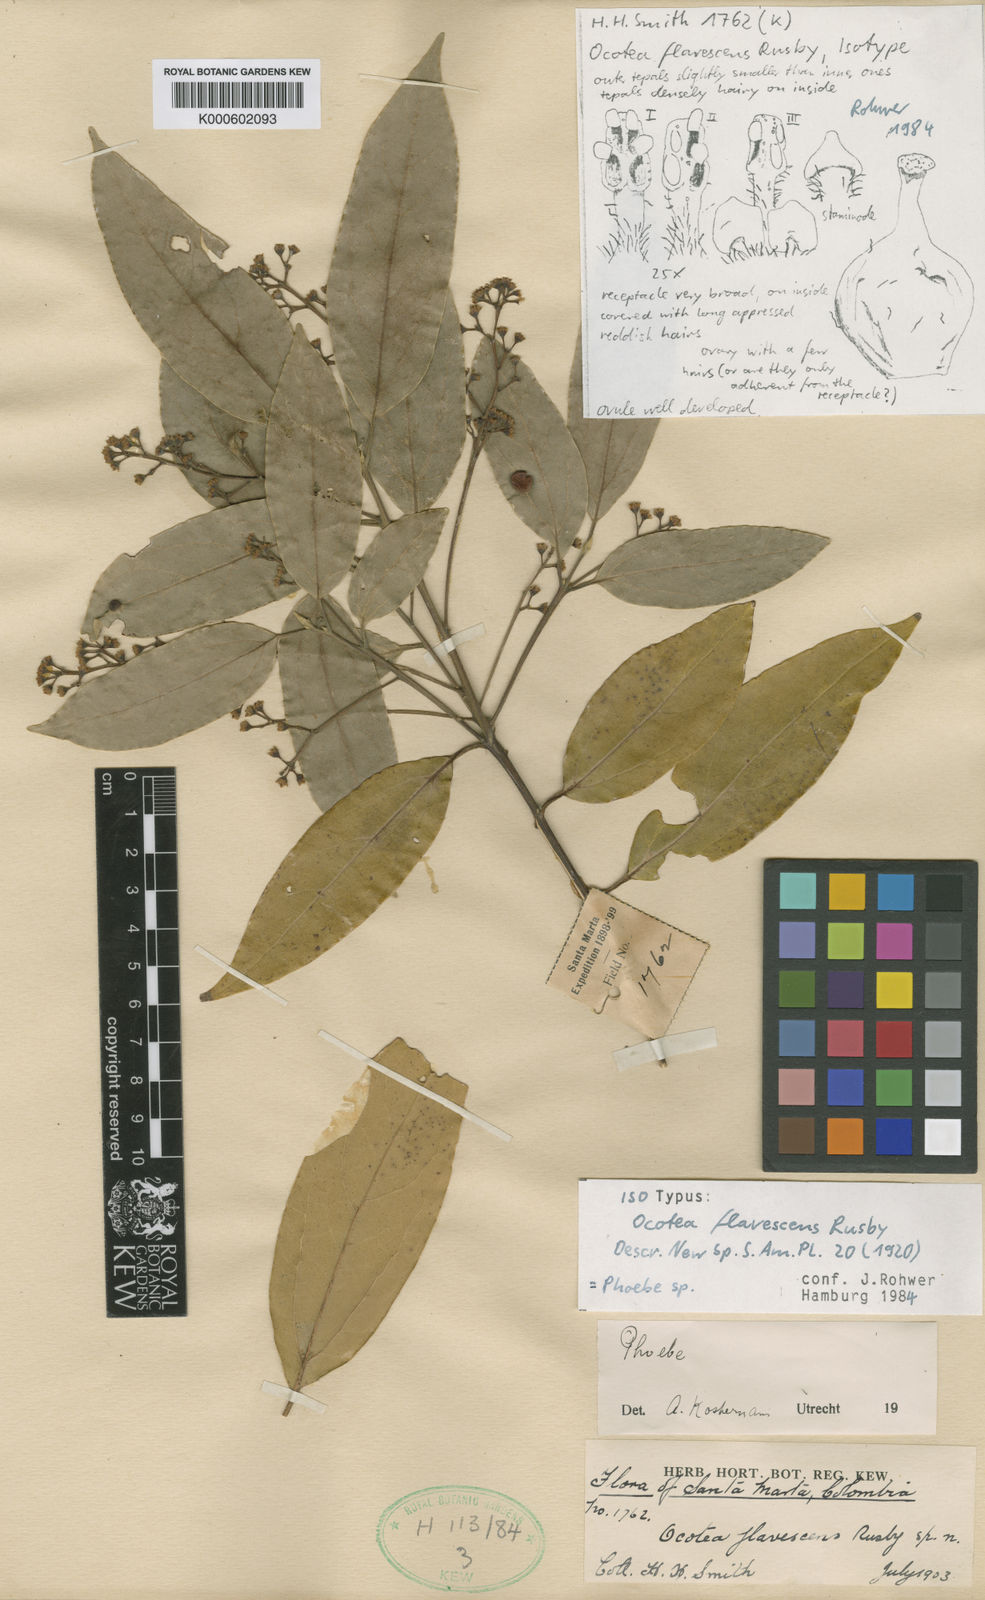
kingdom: Plantae
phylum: Tracheophyta
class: Magnoliopsida
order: Laurales
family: Lauraceae
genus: Aiouea
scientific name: Aiouea montana
